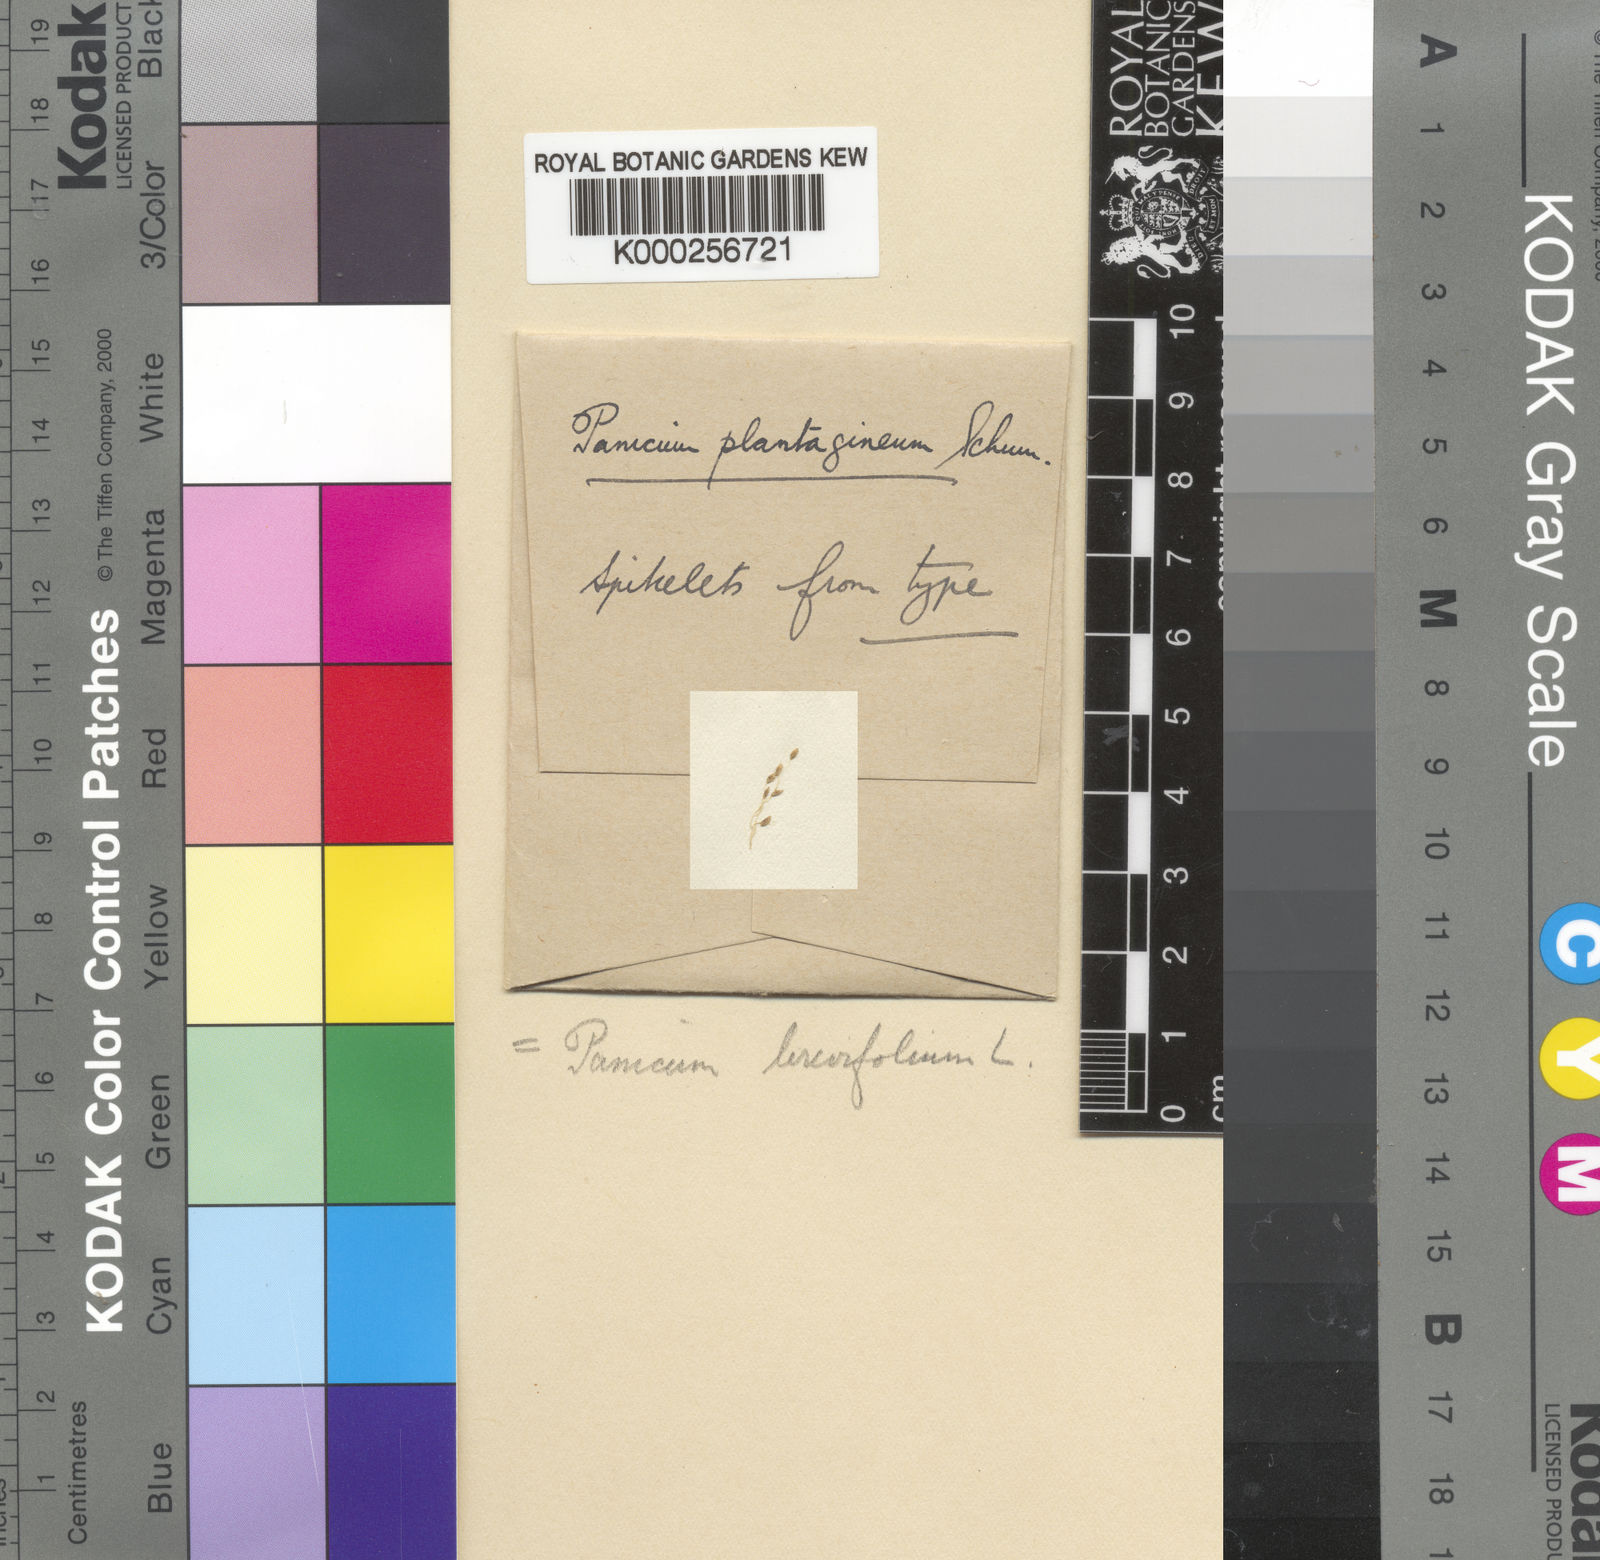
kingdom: Plantae
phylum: Tracheophyta
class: Liliopsida
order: Poales
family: Poaceae
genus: Panicum
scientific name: Panicum brevifolium
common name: Shortleaf panic grass
